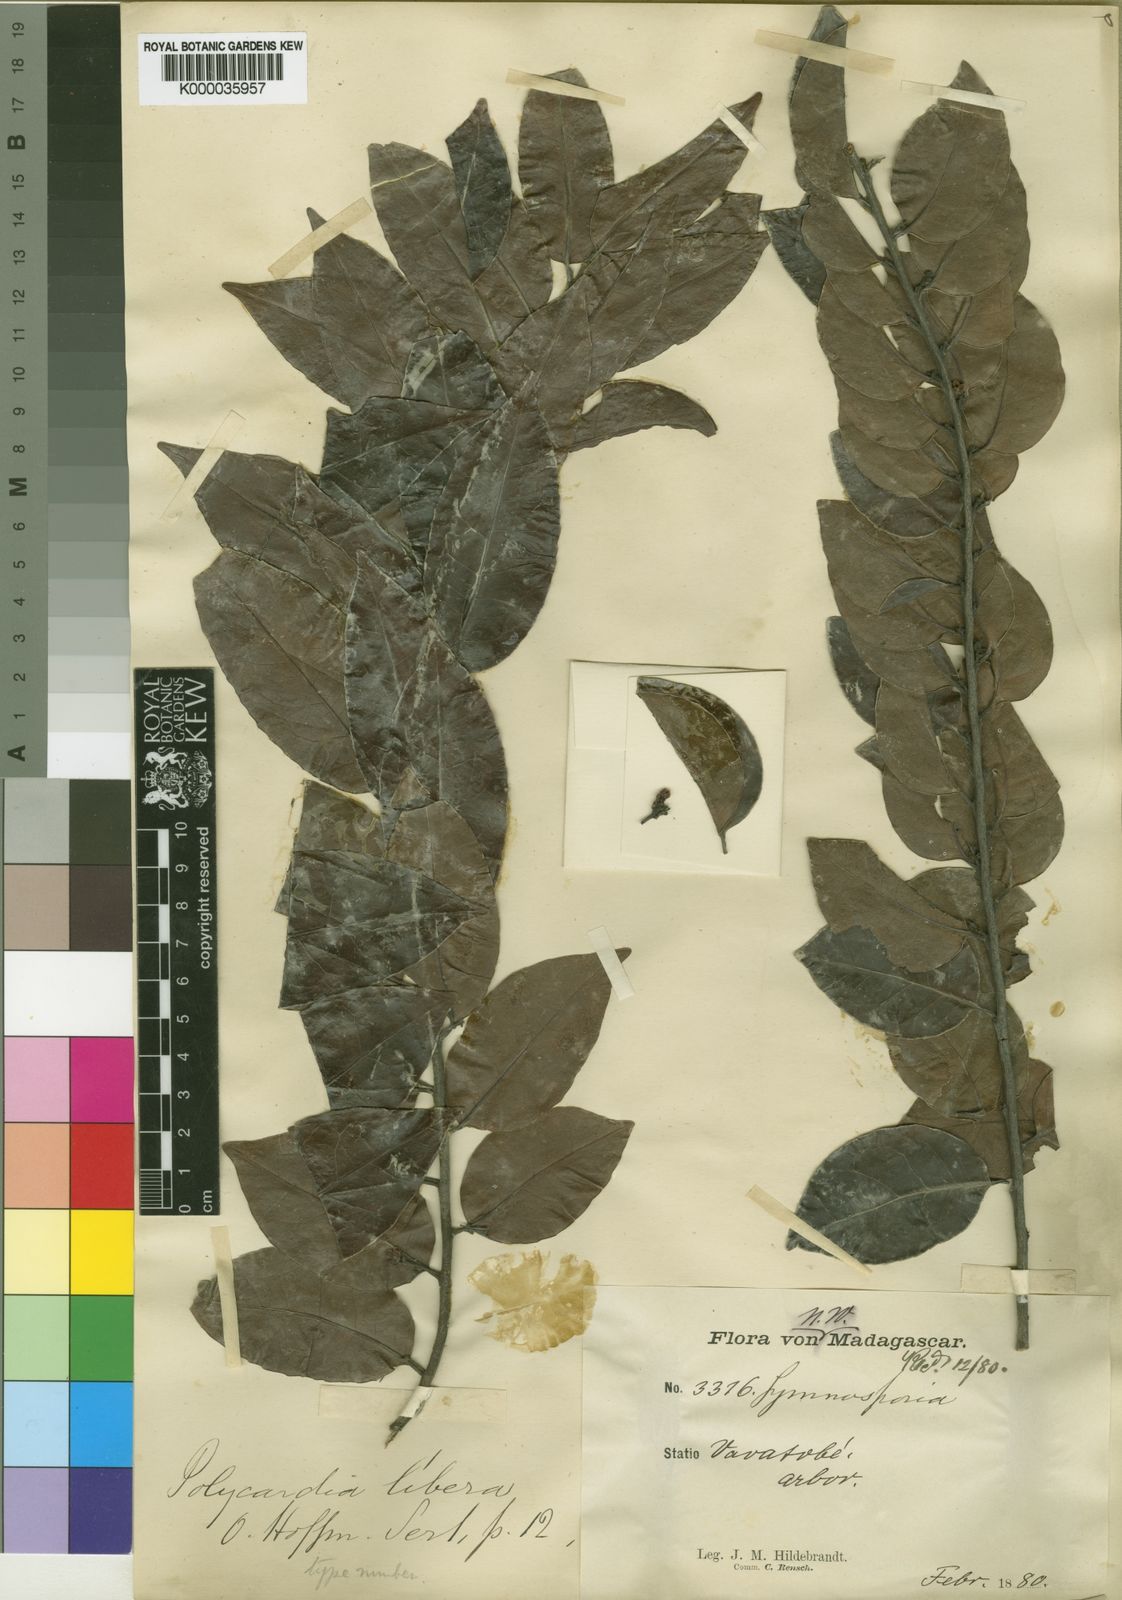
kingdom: Plantae
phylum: Tracheophyta
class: Magnoliopsida
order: Celastrales
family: Celastraceae
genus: Polycardia
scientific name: Polycardia libera
